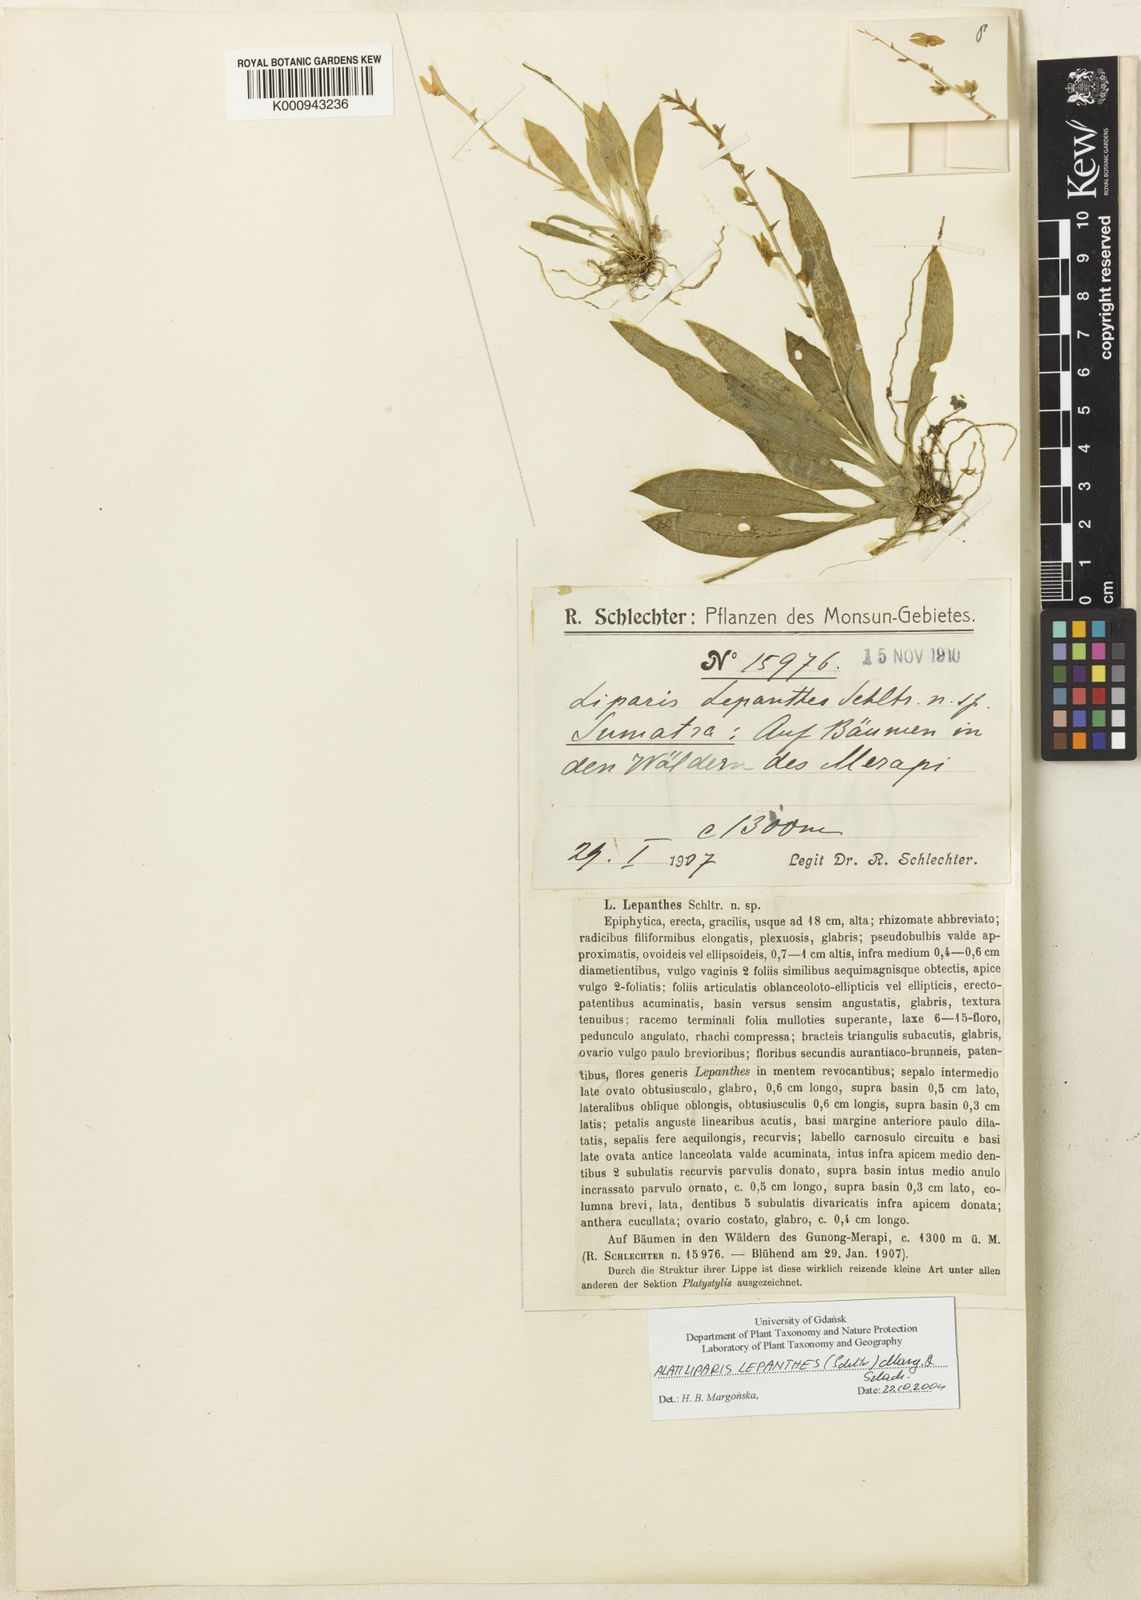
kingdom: Plantae
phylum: Tracheophyta
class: Liliopsida
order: Asparagales
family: Orchidaceae
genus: Alatiliparis
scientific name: Alatiliparis lepanthes
